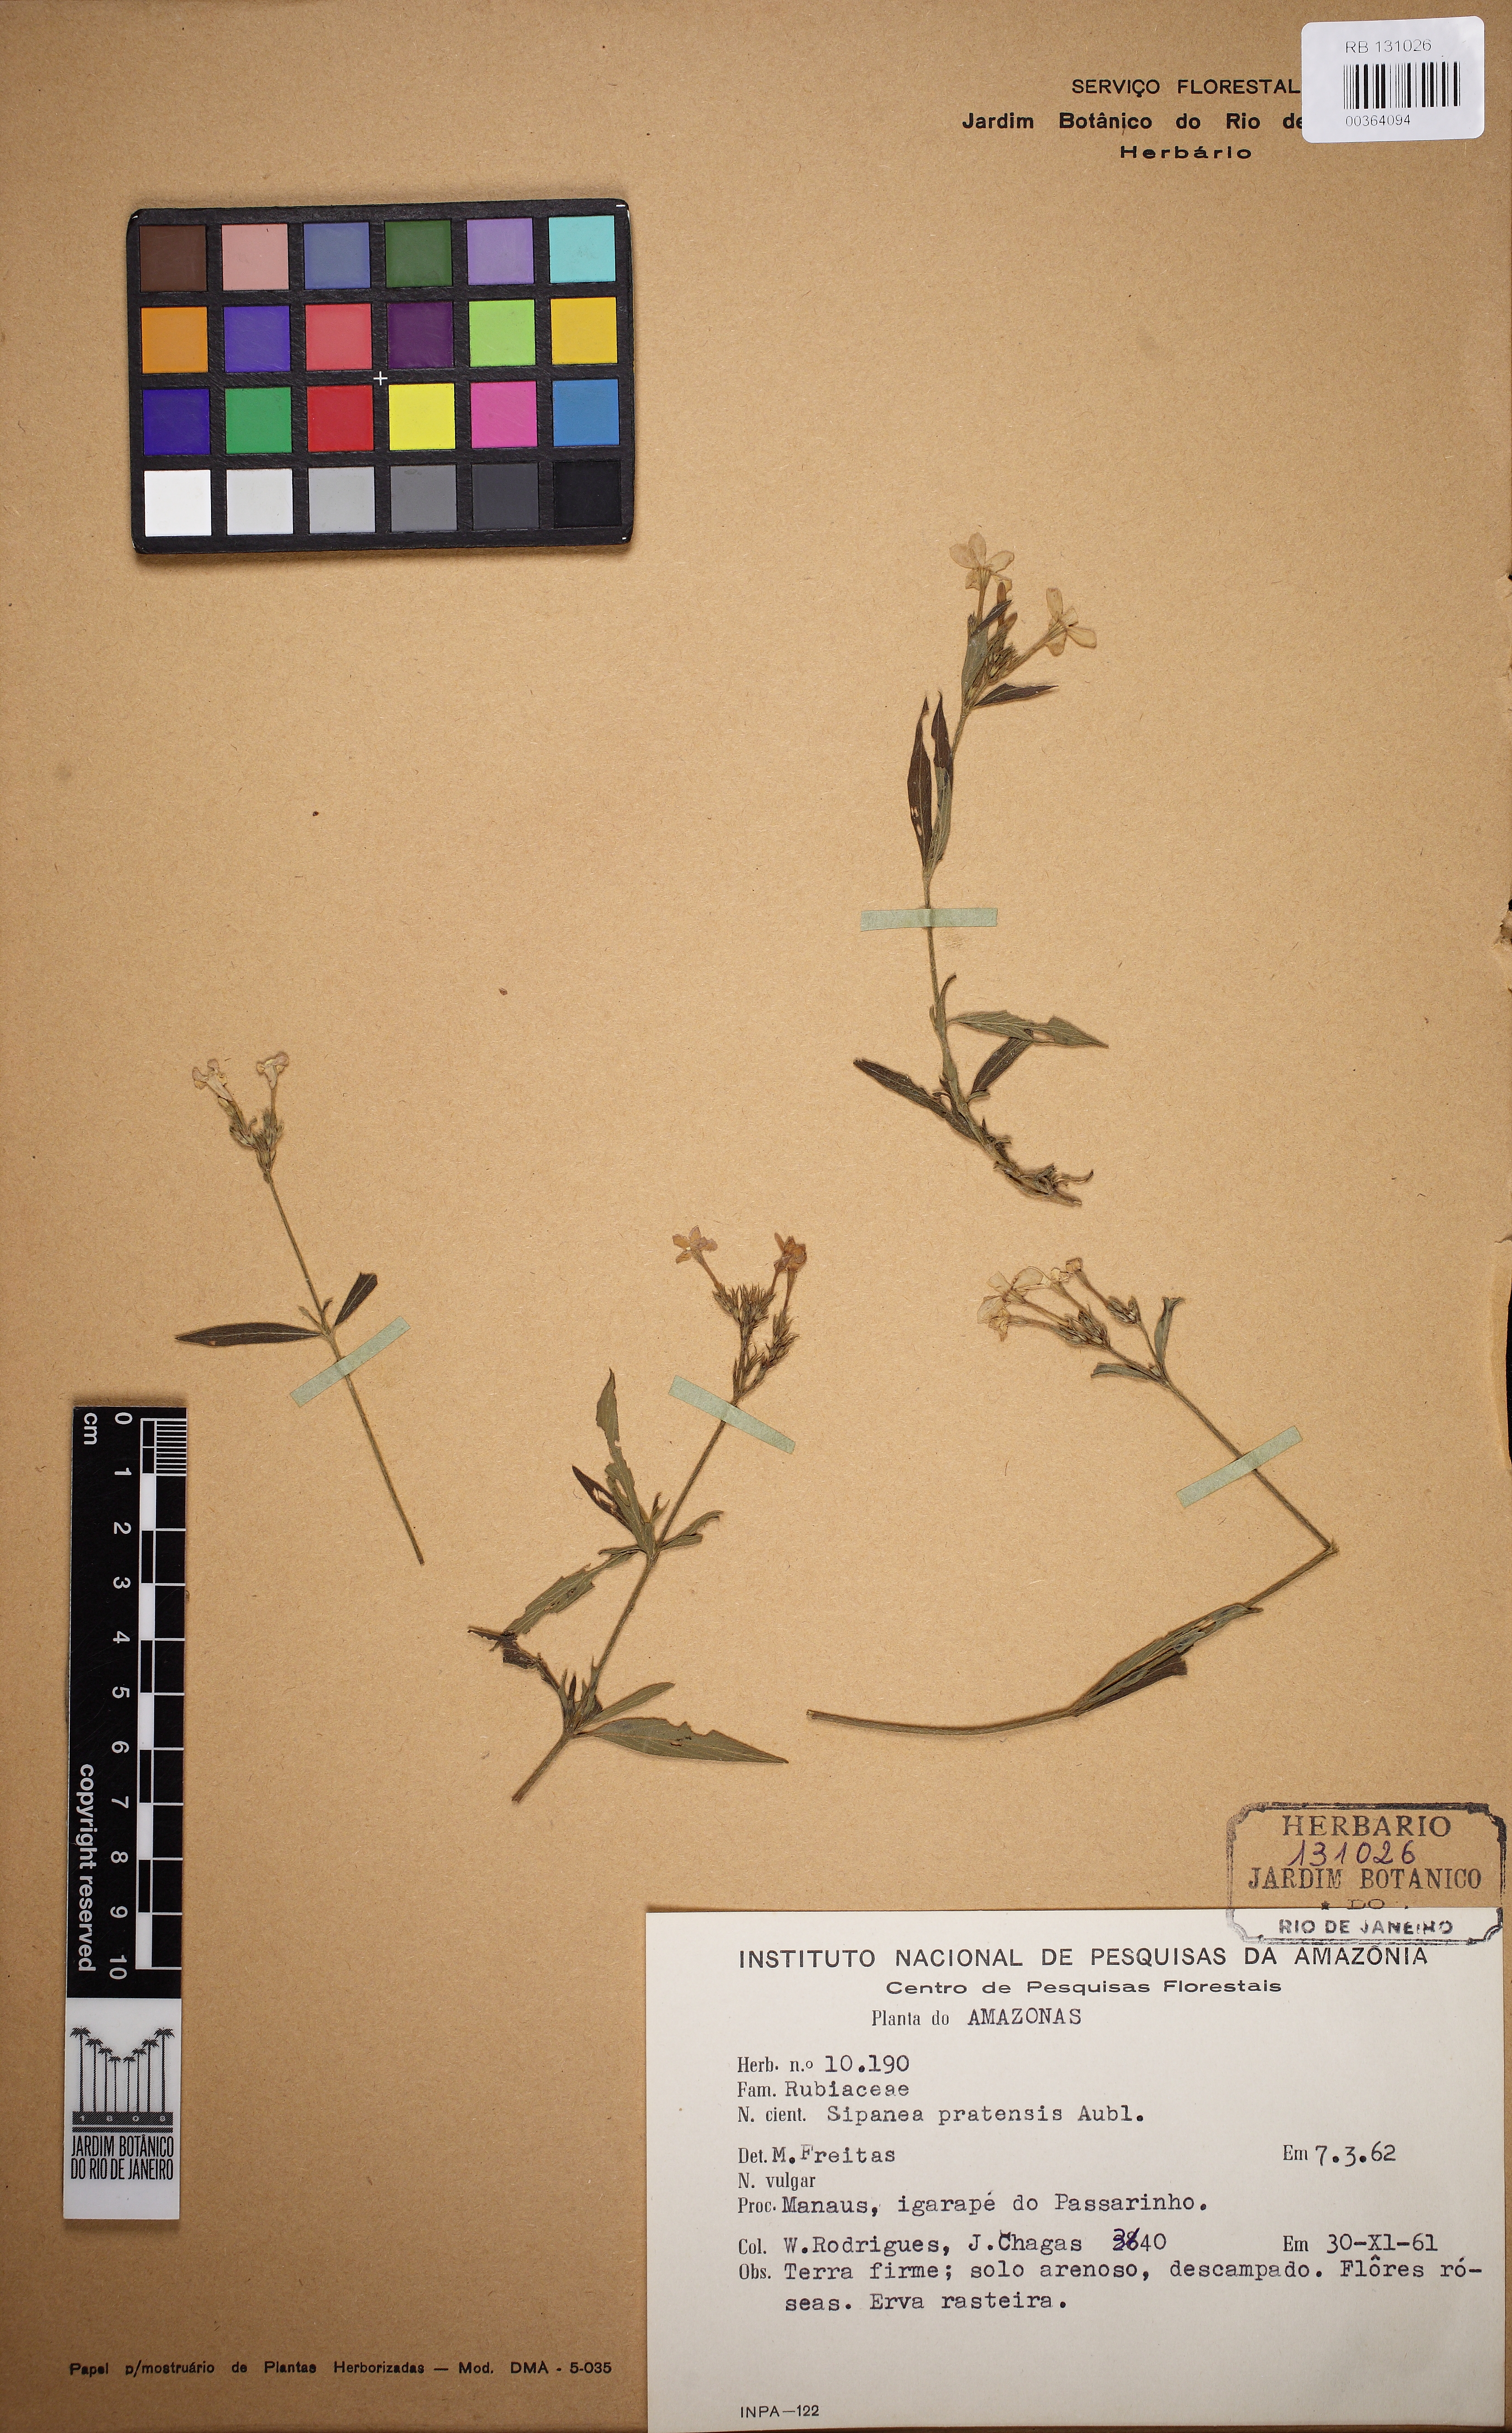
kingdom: Plantae
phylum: Tracheophyta
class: Magnoliopsida
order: Gentianales
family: Rubiaceae
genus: Sipanea
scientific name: Sipanea pratensis
